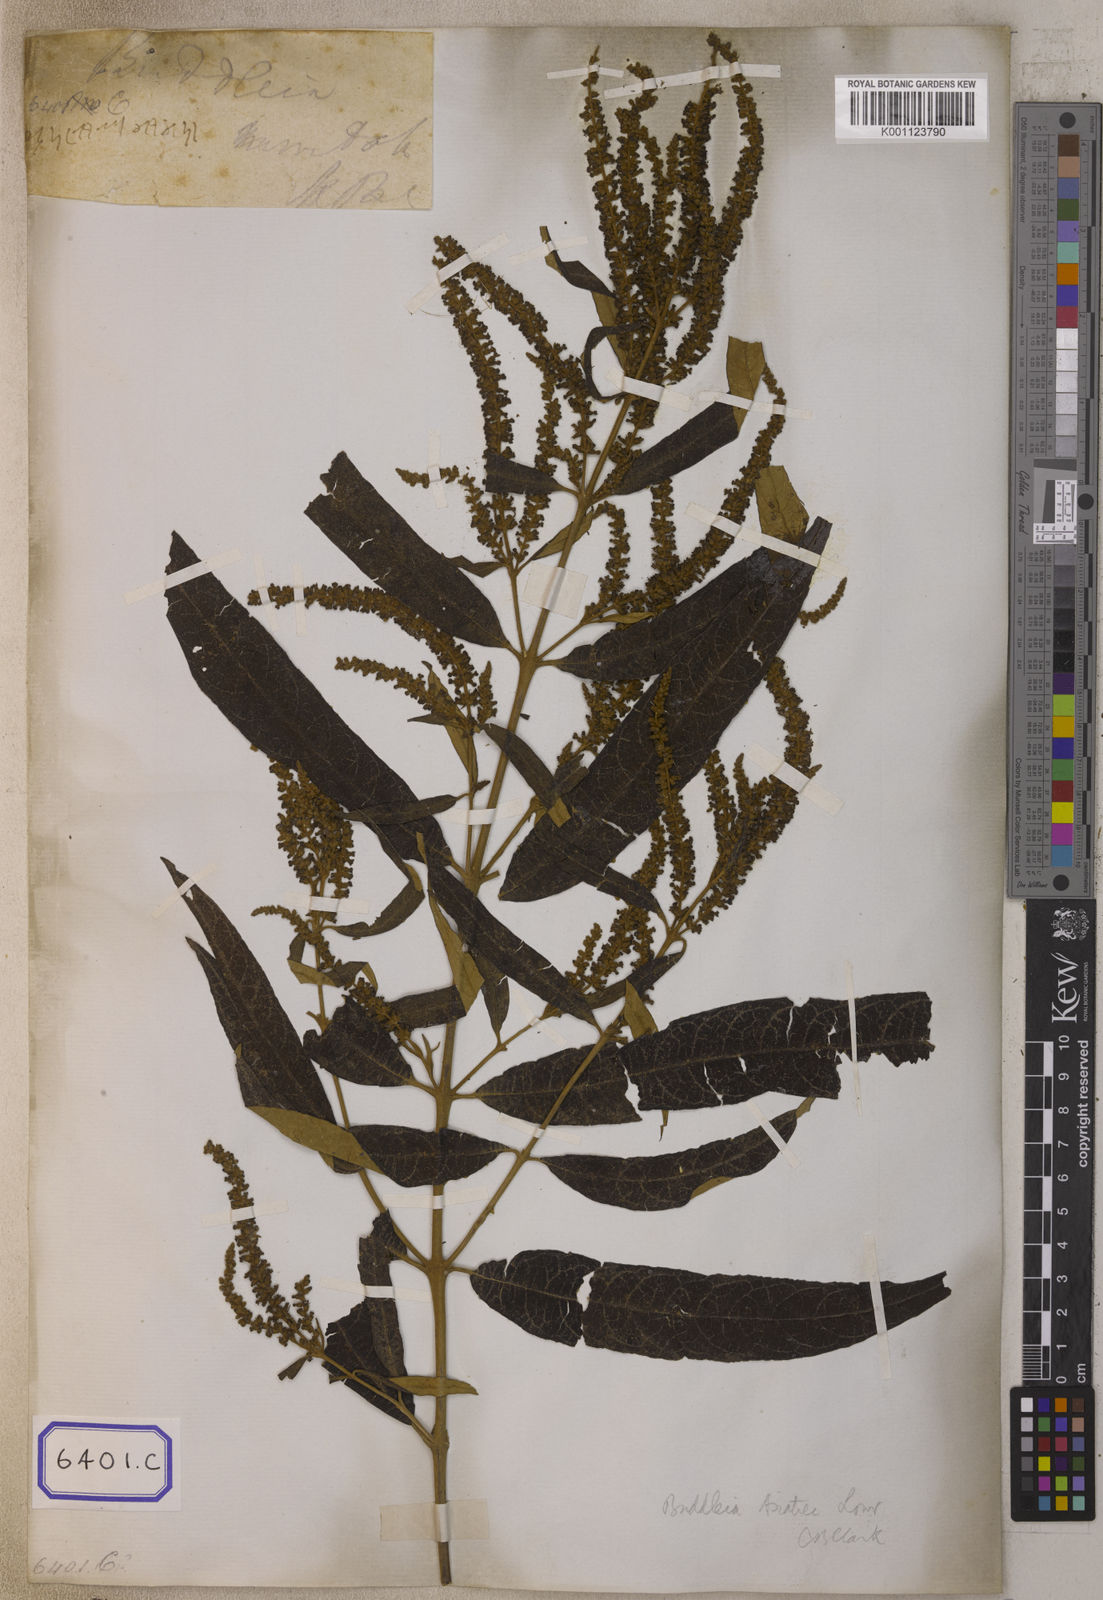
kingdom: Plantae
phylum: Tracheophyta
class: Magnoliopsida
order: Lamiales
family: Scrophulariaceae
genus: Buddleja
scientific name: Buddleja
